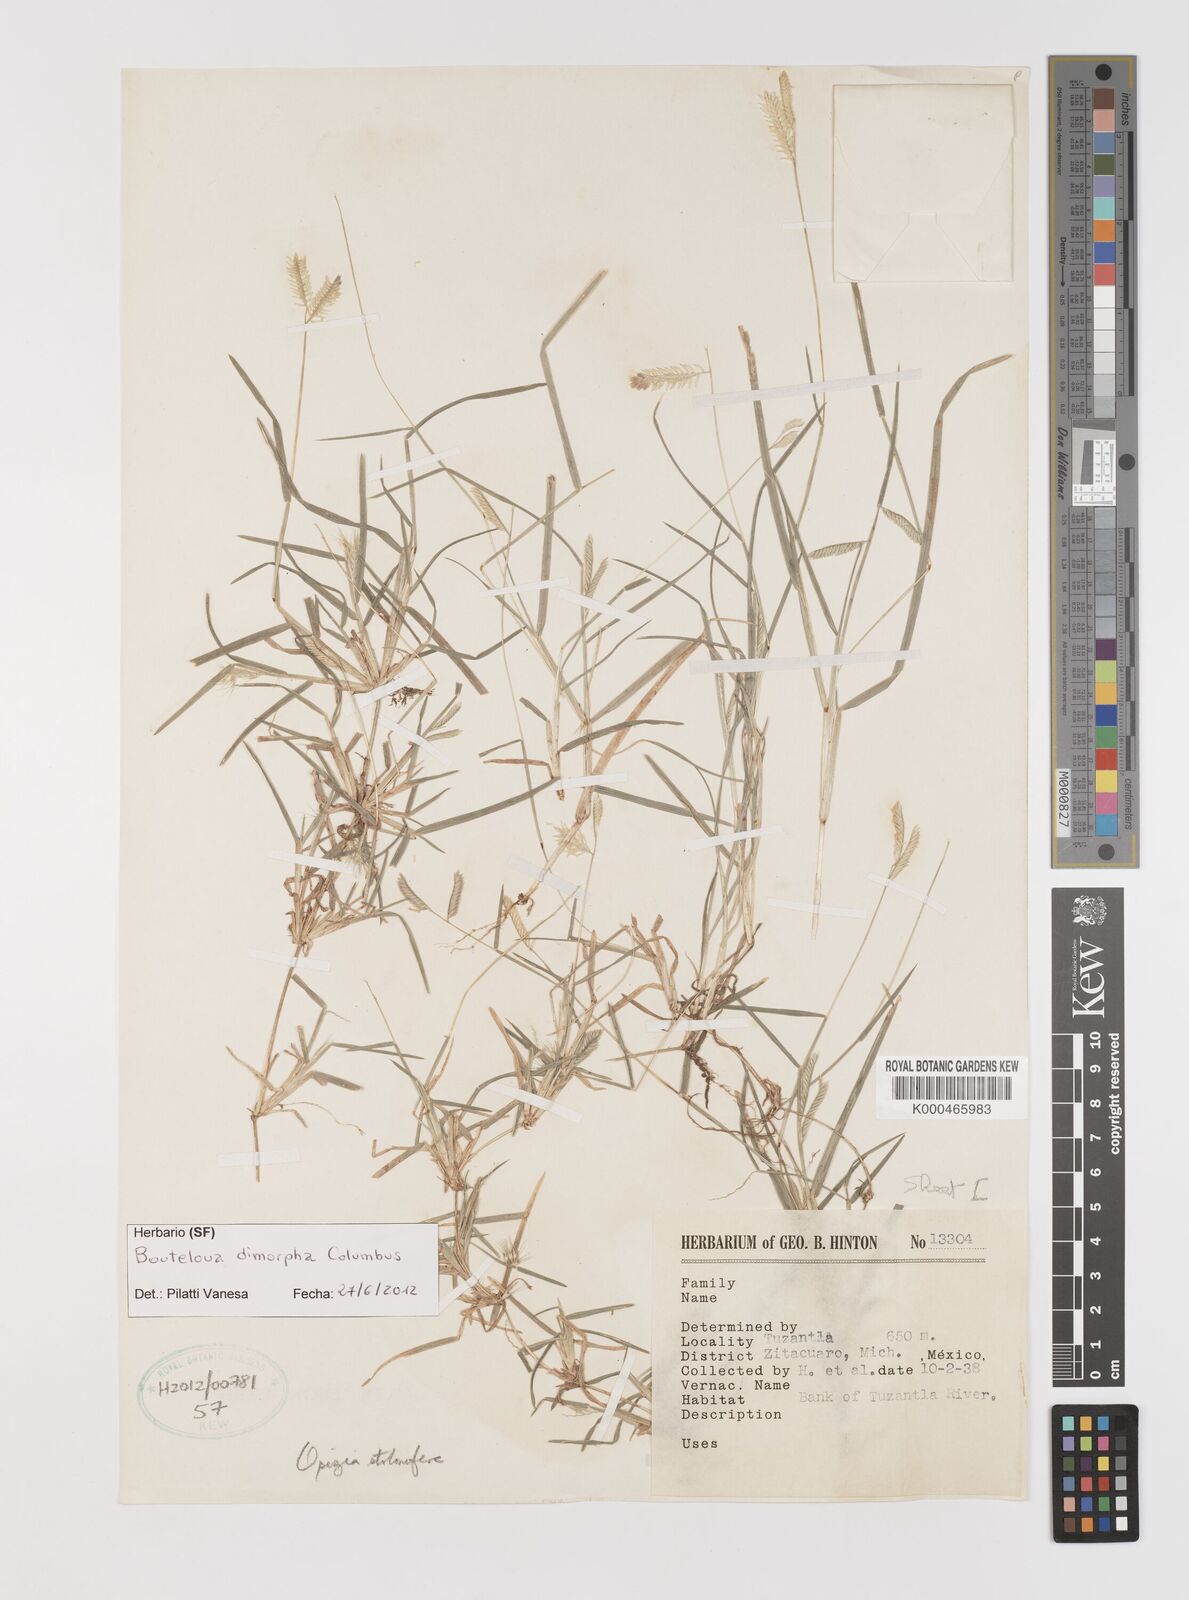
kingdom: Plantae
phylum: Tracheophyta
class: Liliopsida
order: Poales
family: Poaceae
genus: Bouteloua
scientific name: Bouteloua dimorpha
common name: Acapulco grass
